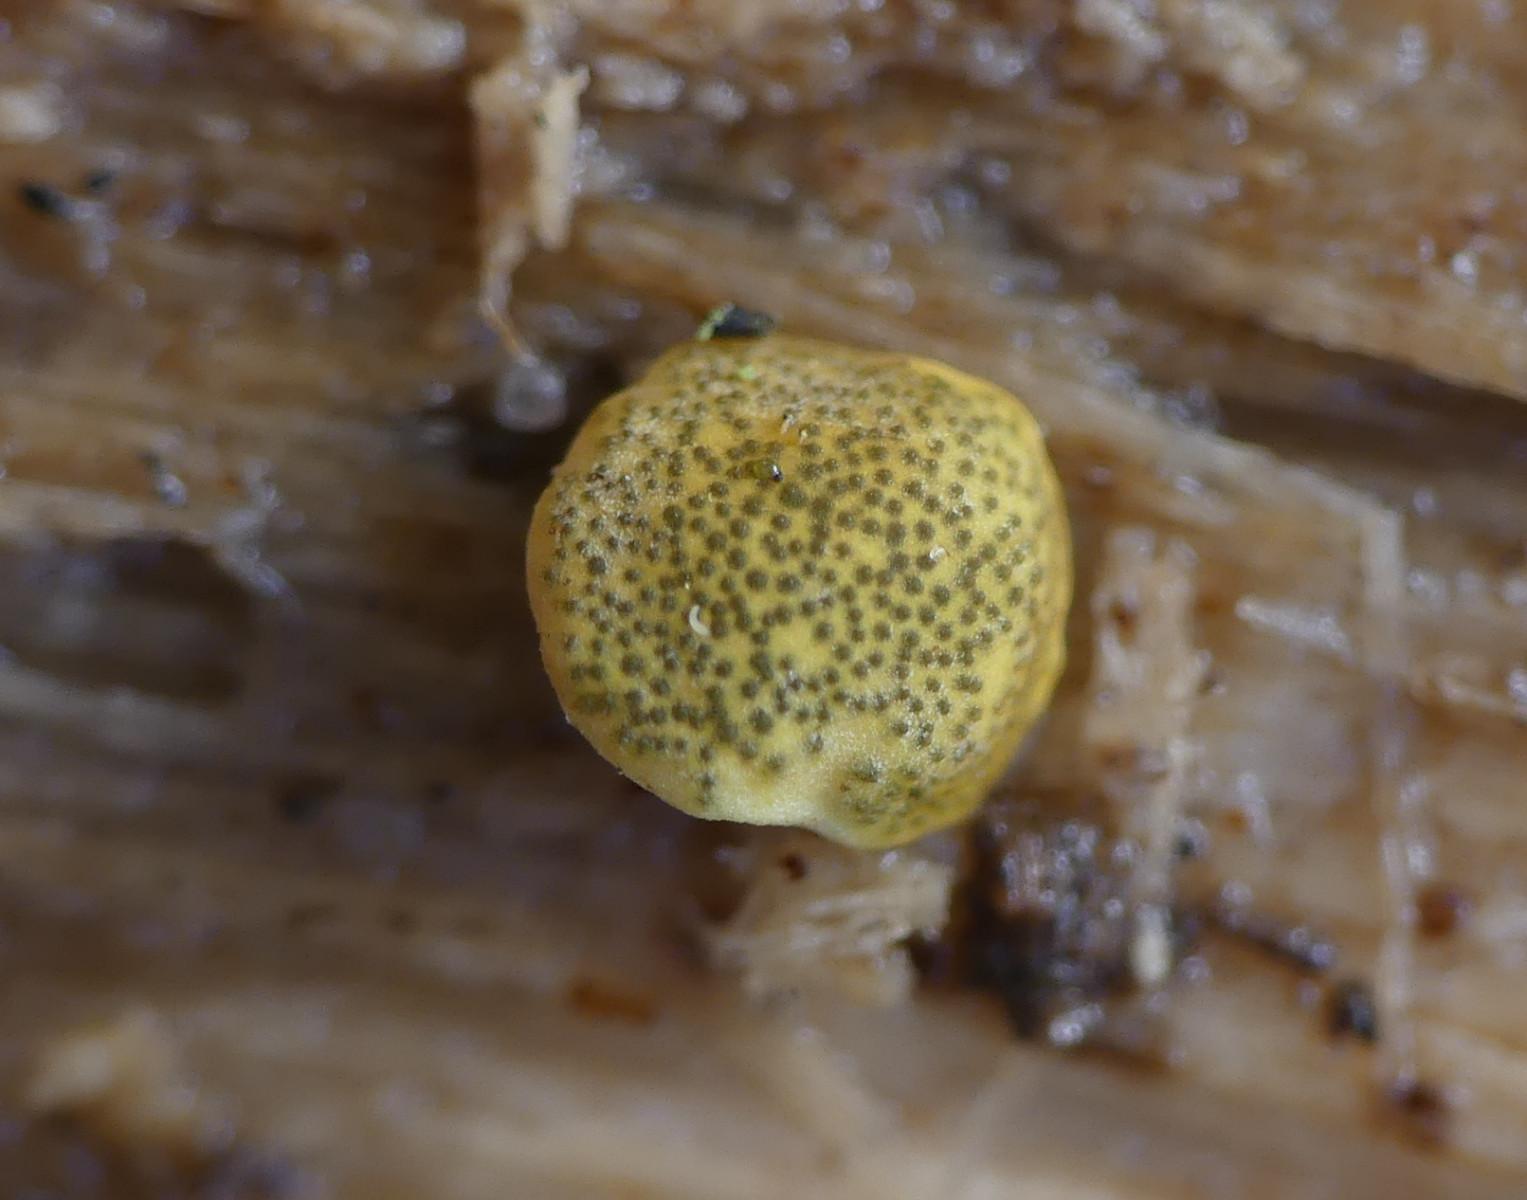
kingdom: Fungi
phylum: Ascomycota
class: Sordariomycetes
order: Hypocreales
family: Hypocreaceae
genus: Trichoderma
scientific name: Trichoderma aureoviride
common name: æggegul kødkerne
